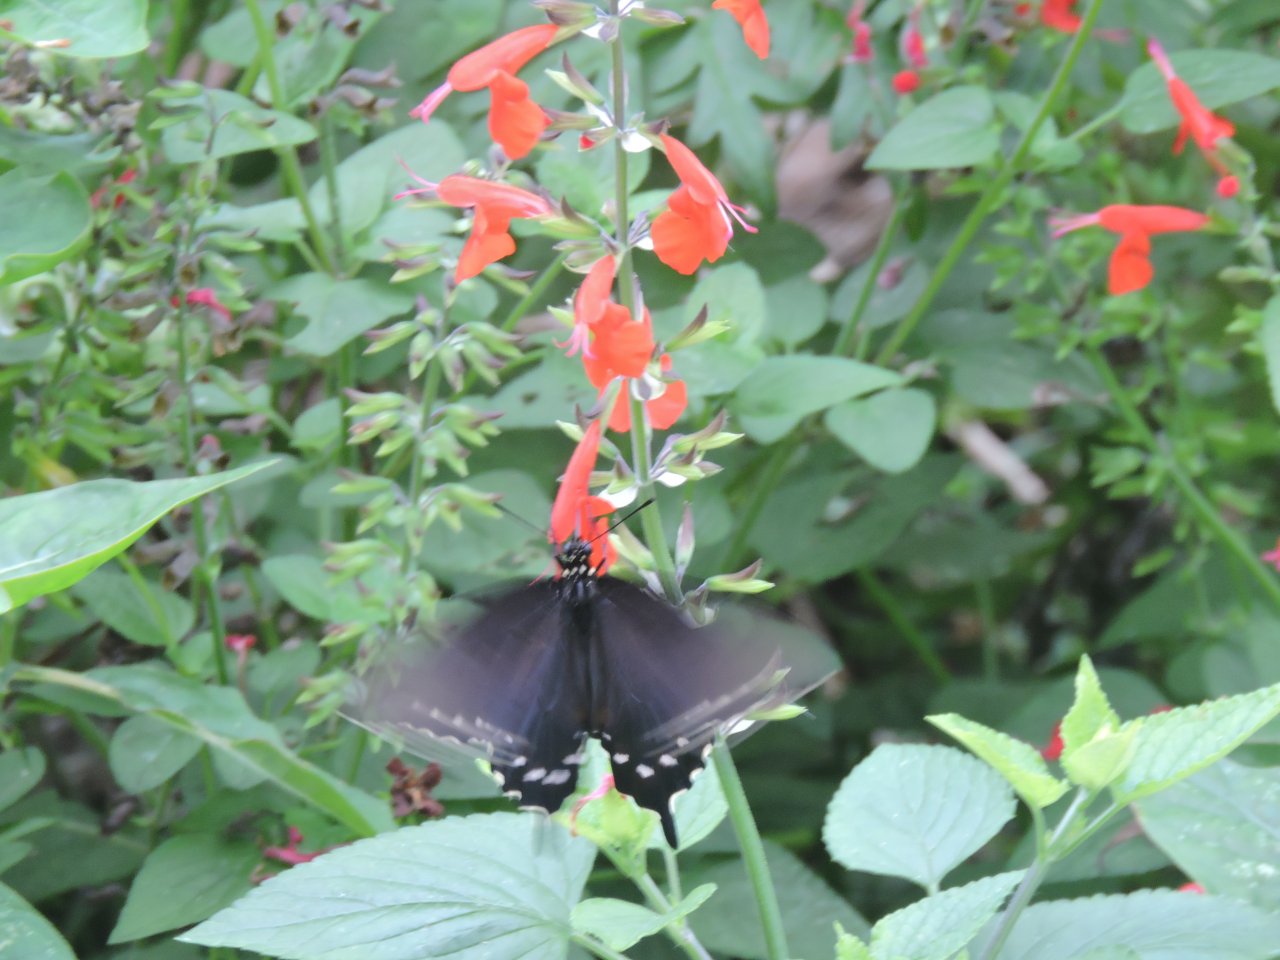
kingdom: Animalia
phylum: Arthropoda
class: Insecta
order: Lepidoptera
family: Papilionidae
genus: Battus
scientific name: Battus philenor
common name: Pipevine Swallowtail
